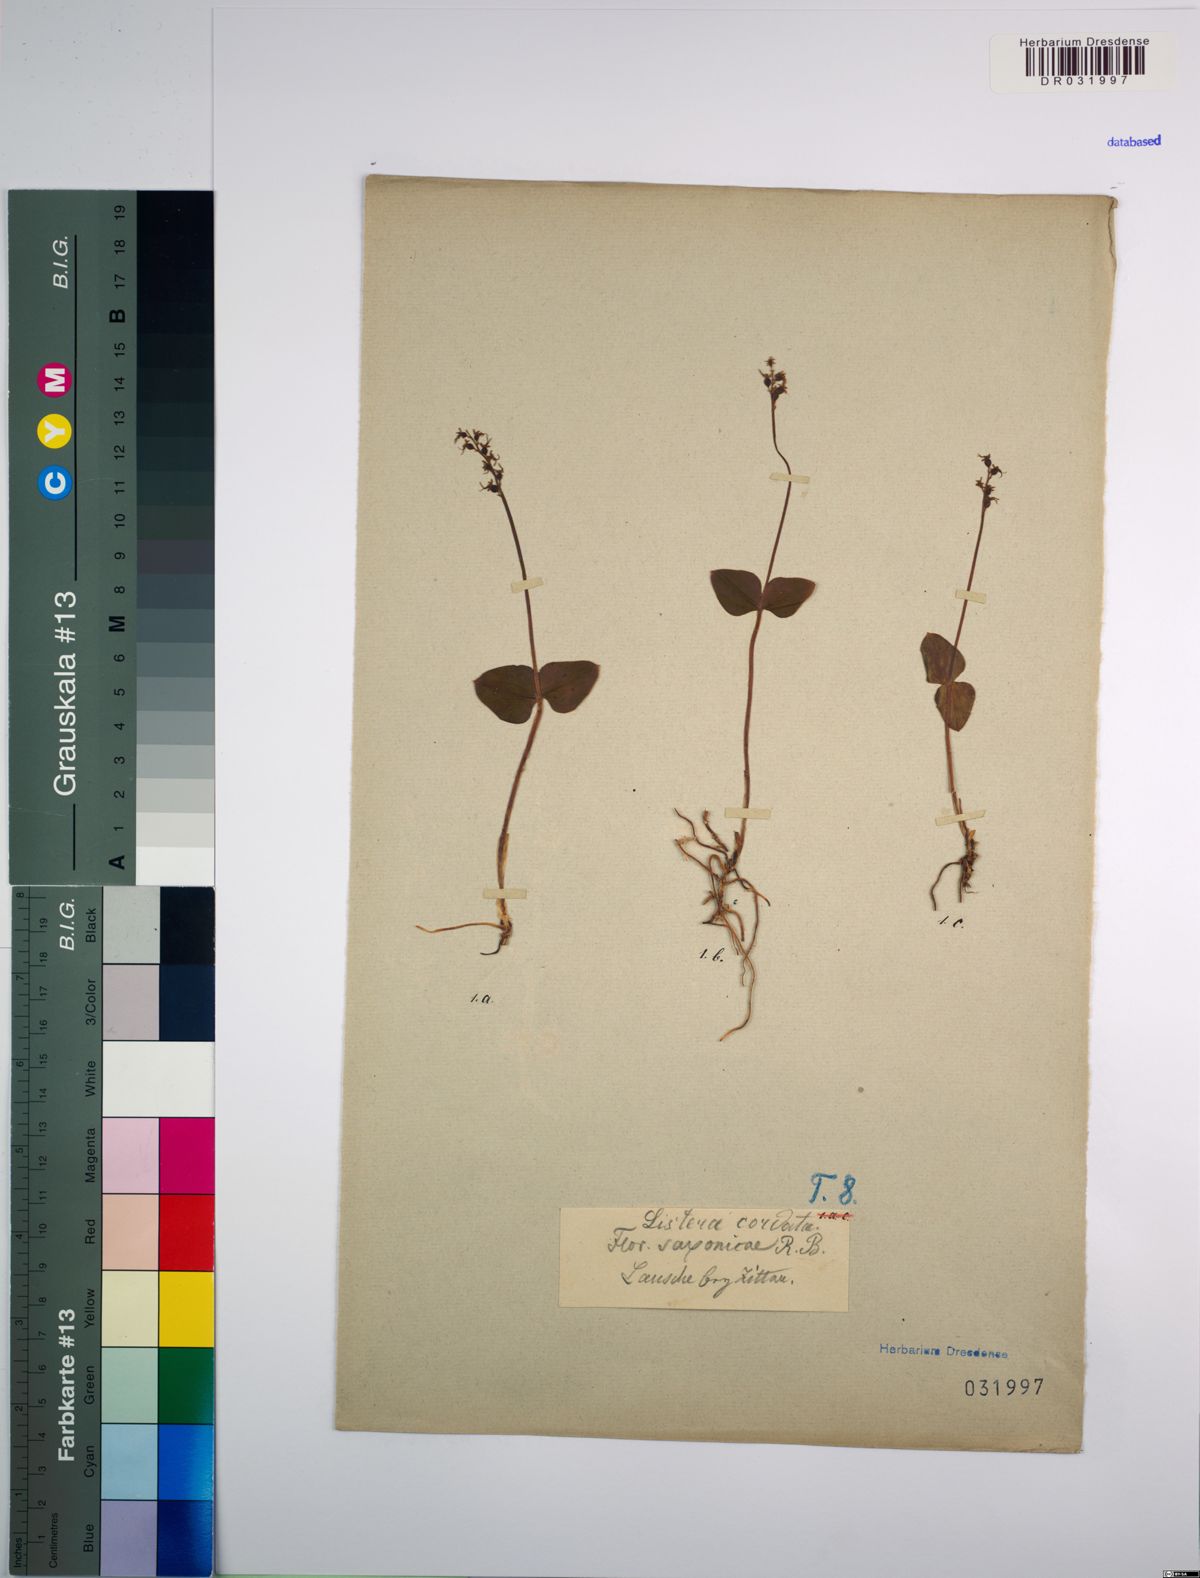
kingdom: Plantae
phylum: Tracheophyta
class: Liliopsida
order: Asparagales
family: Orchidaceae
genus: Neottia
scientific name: Neottia cordata
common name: Lesser twayblade
